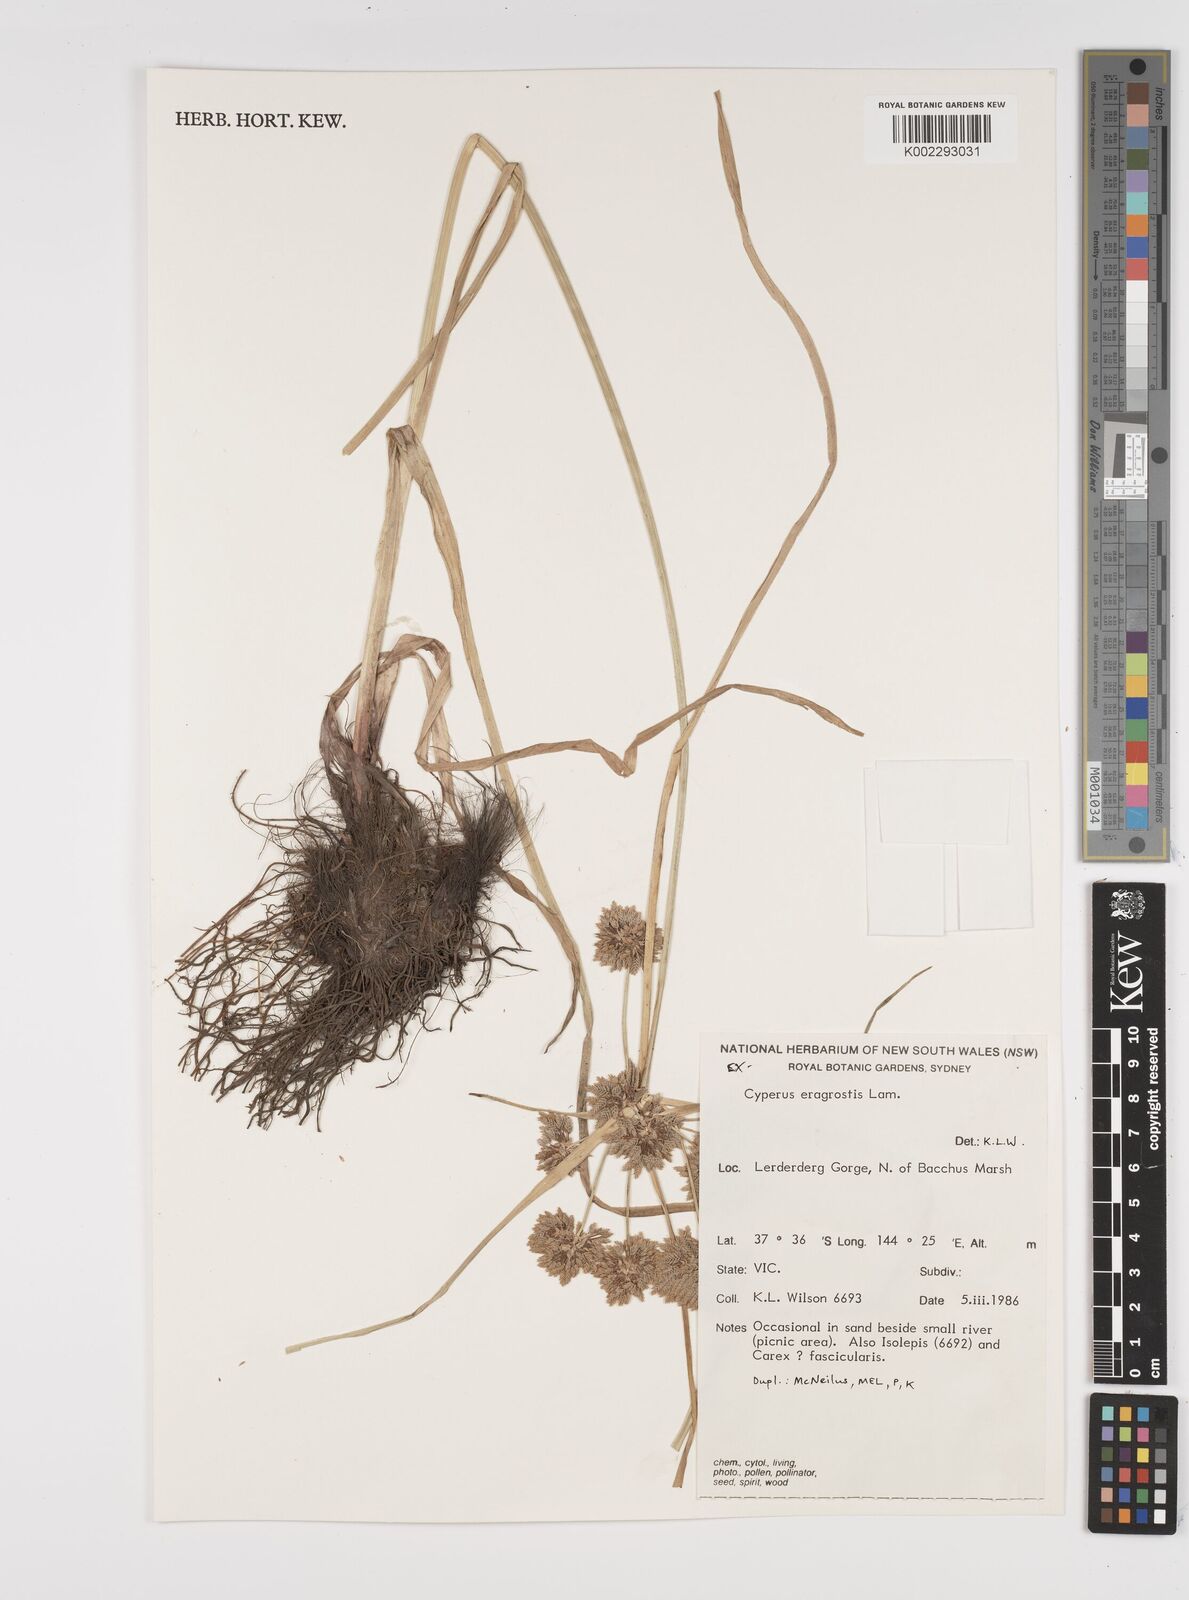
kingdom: Plantae
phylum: Tracheophyta
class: Liliopsida
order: Poales
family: Cyperaceae
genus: Cyperus
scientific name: Cyperus eragrostis
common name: Tall flatsedge
